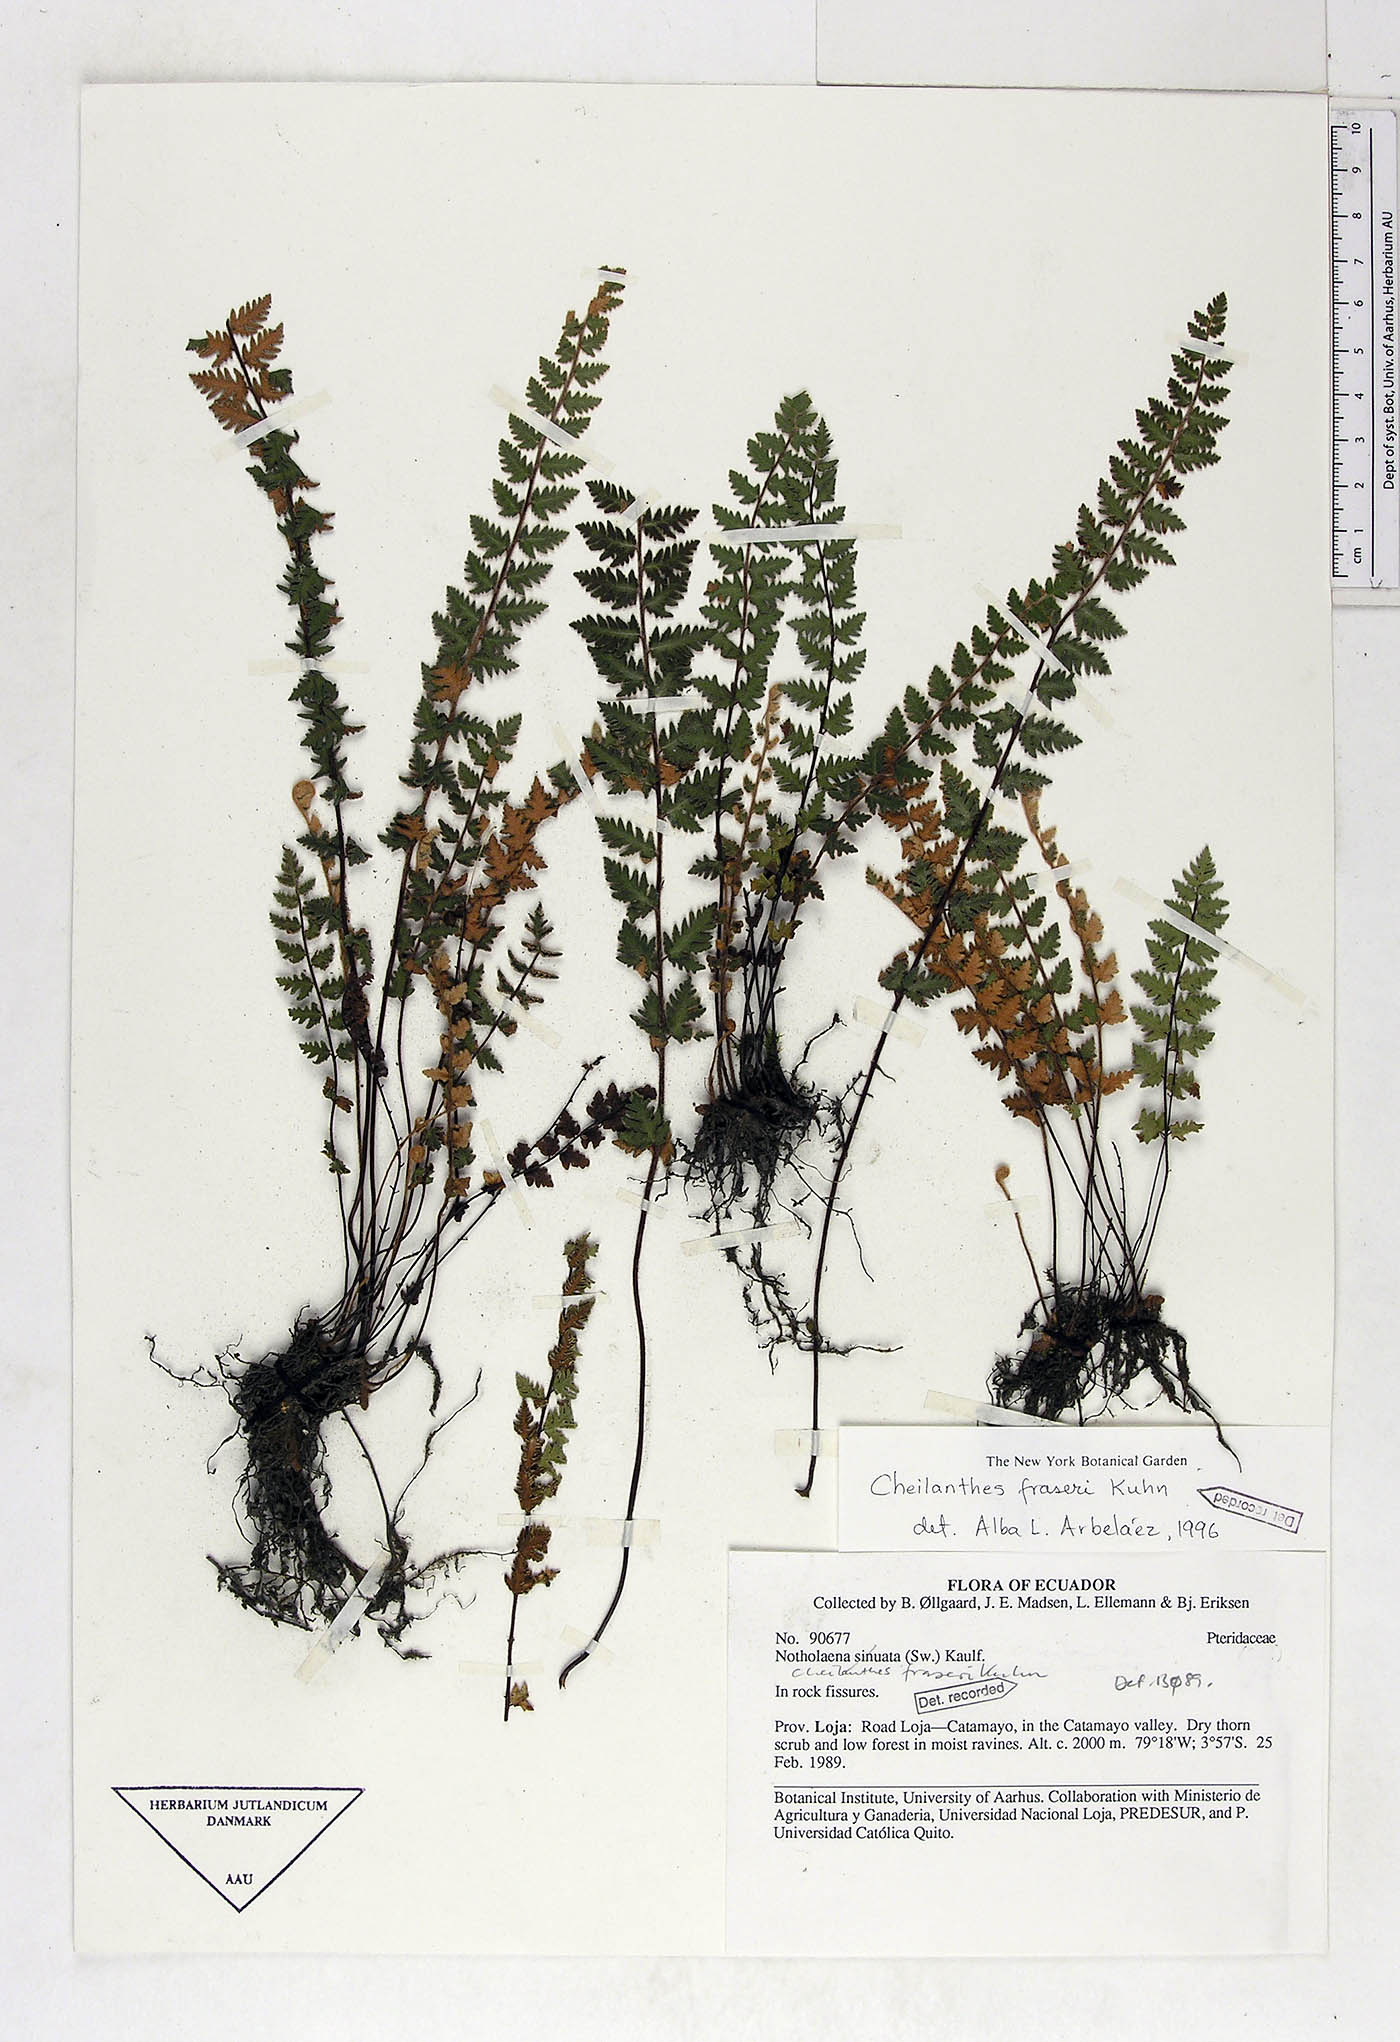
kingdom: Plantae
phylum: Tracheophyta
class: Polypodiopsida
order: Polypodiales
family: Pteridaceae
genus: Cheilanthes
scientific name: Cheilanthes fraseri
